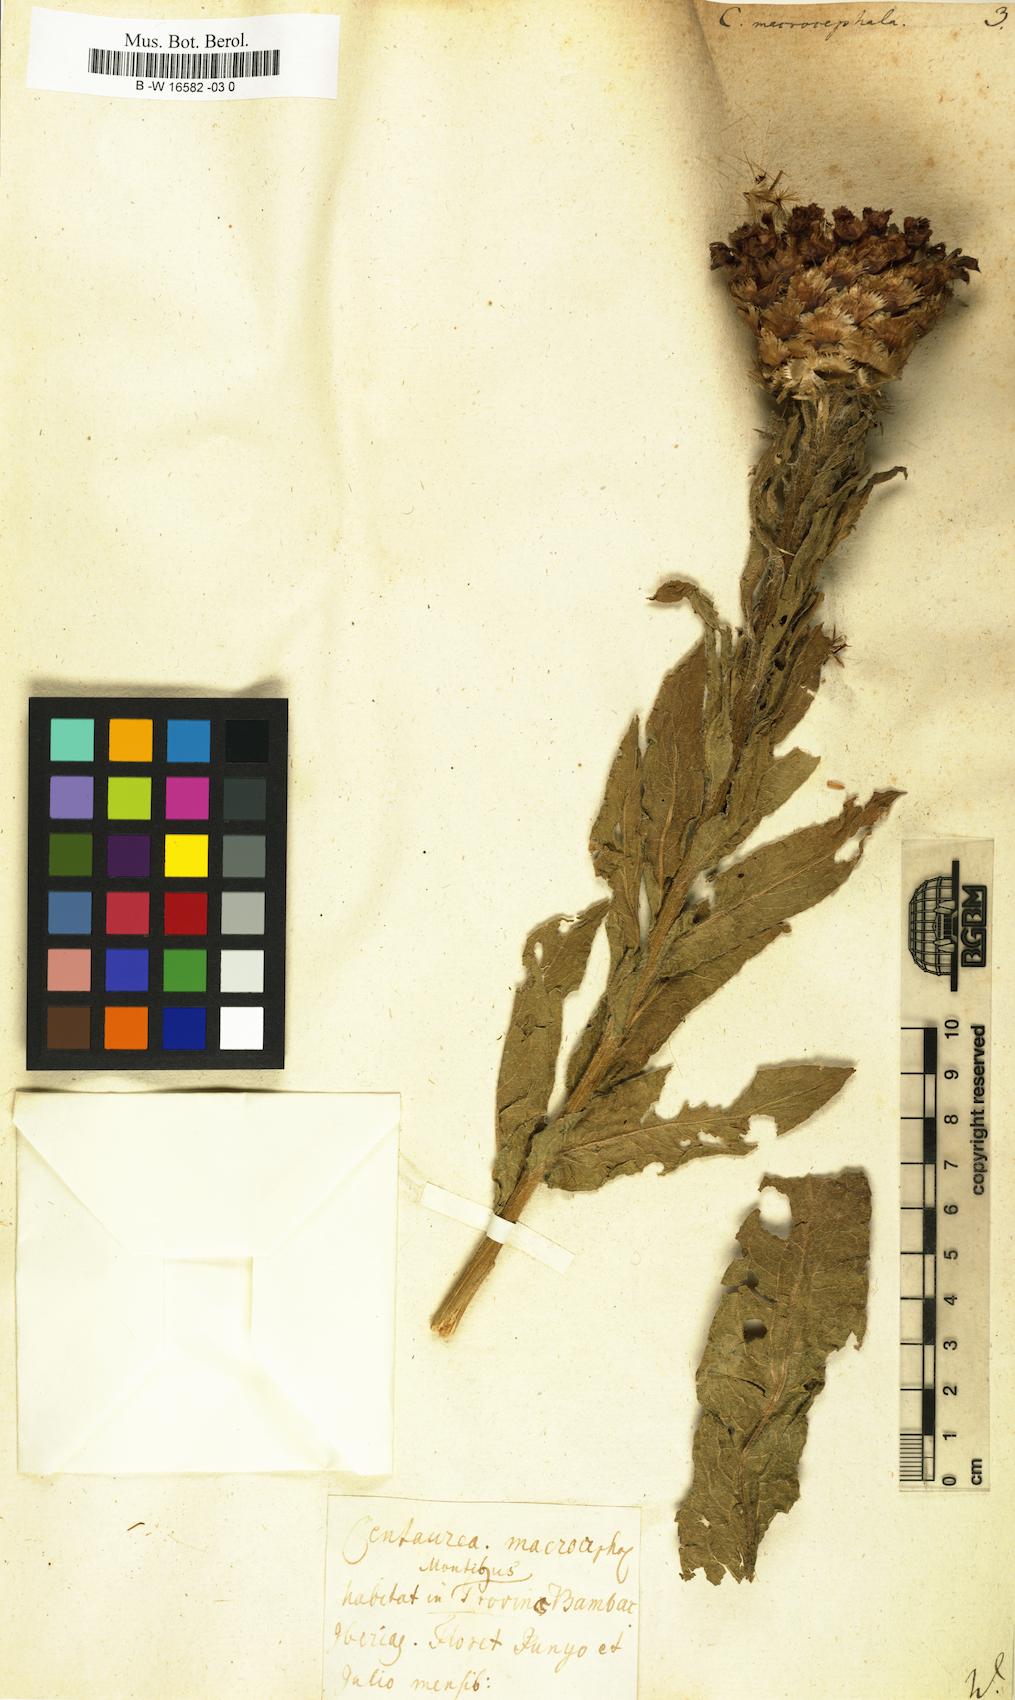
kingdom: Plantae
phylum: Tracheophyta
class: Magnoliopsida
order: Asterales
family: Asteraceae
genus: Centaurea
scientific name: Centaurea macrocephala
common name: Big-head knapweed
